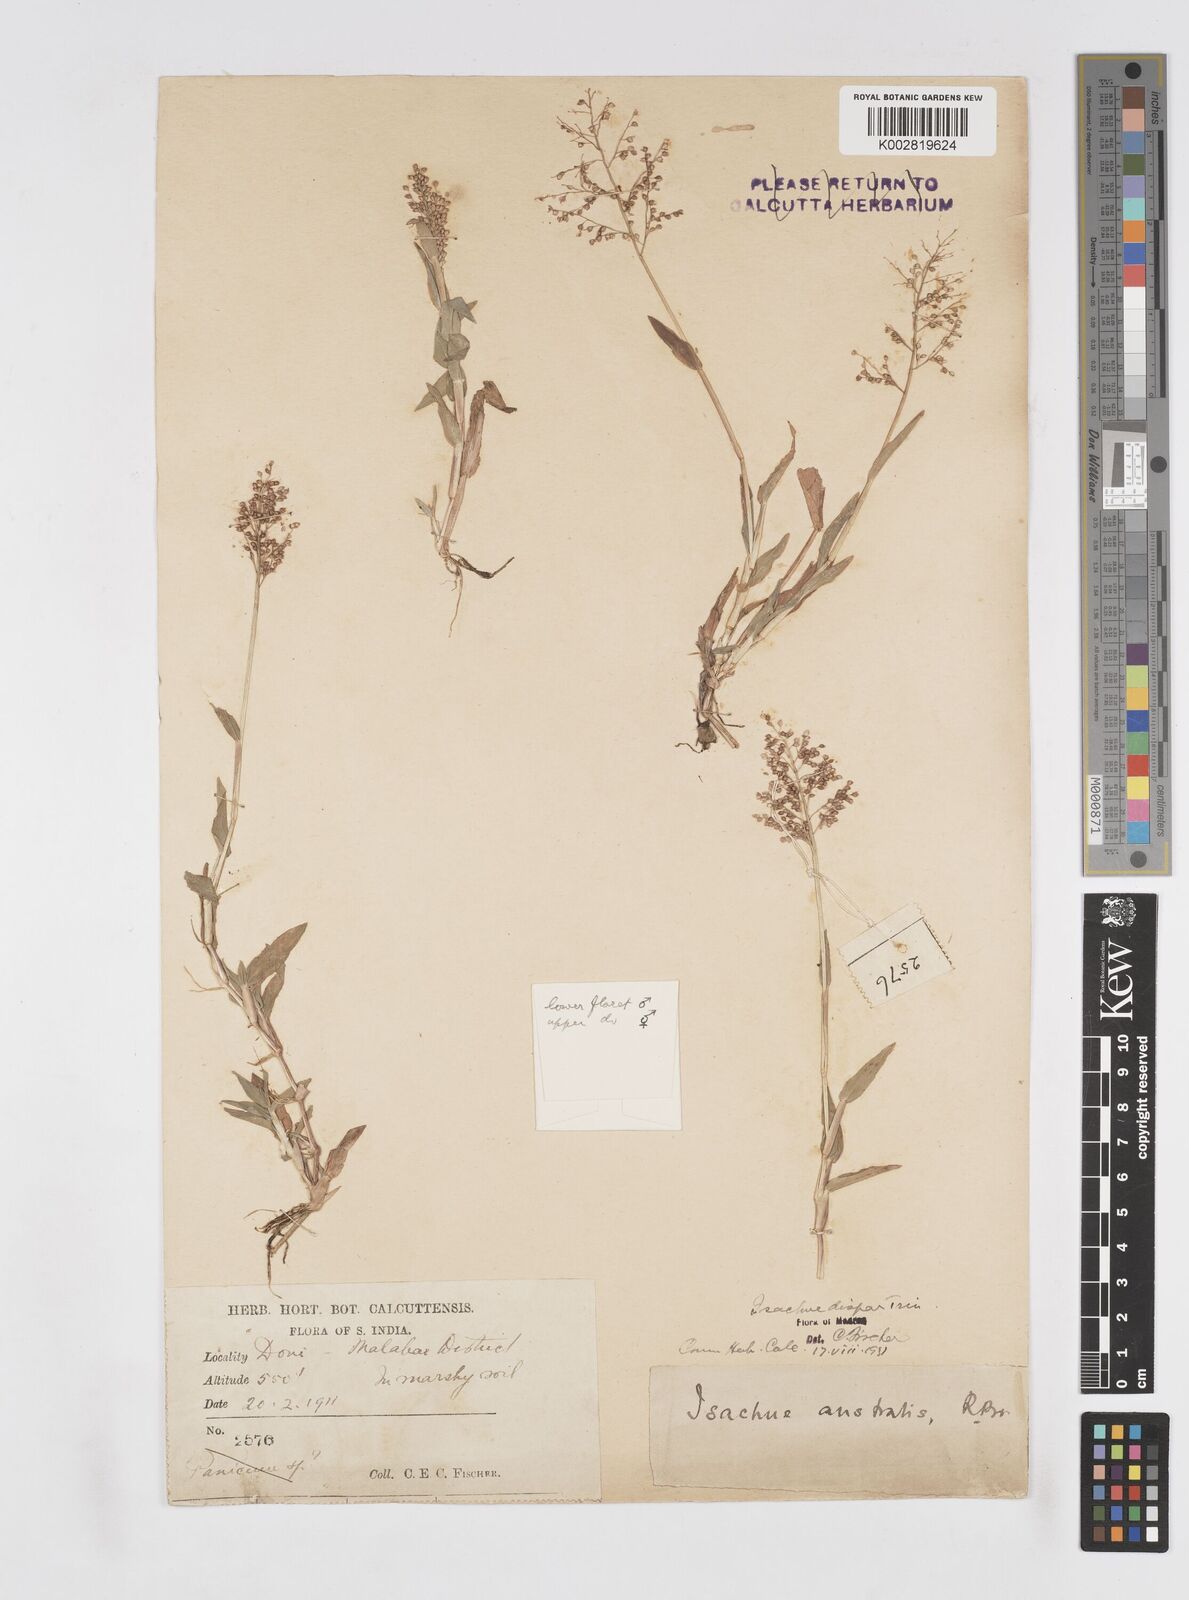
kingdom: Plantae
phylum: Tracheophyta
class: Liliopsida
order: Poales
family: Poaceae
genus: Isachne
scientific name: Isachne globosa
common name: Swamp millet
